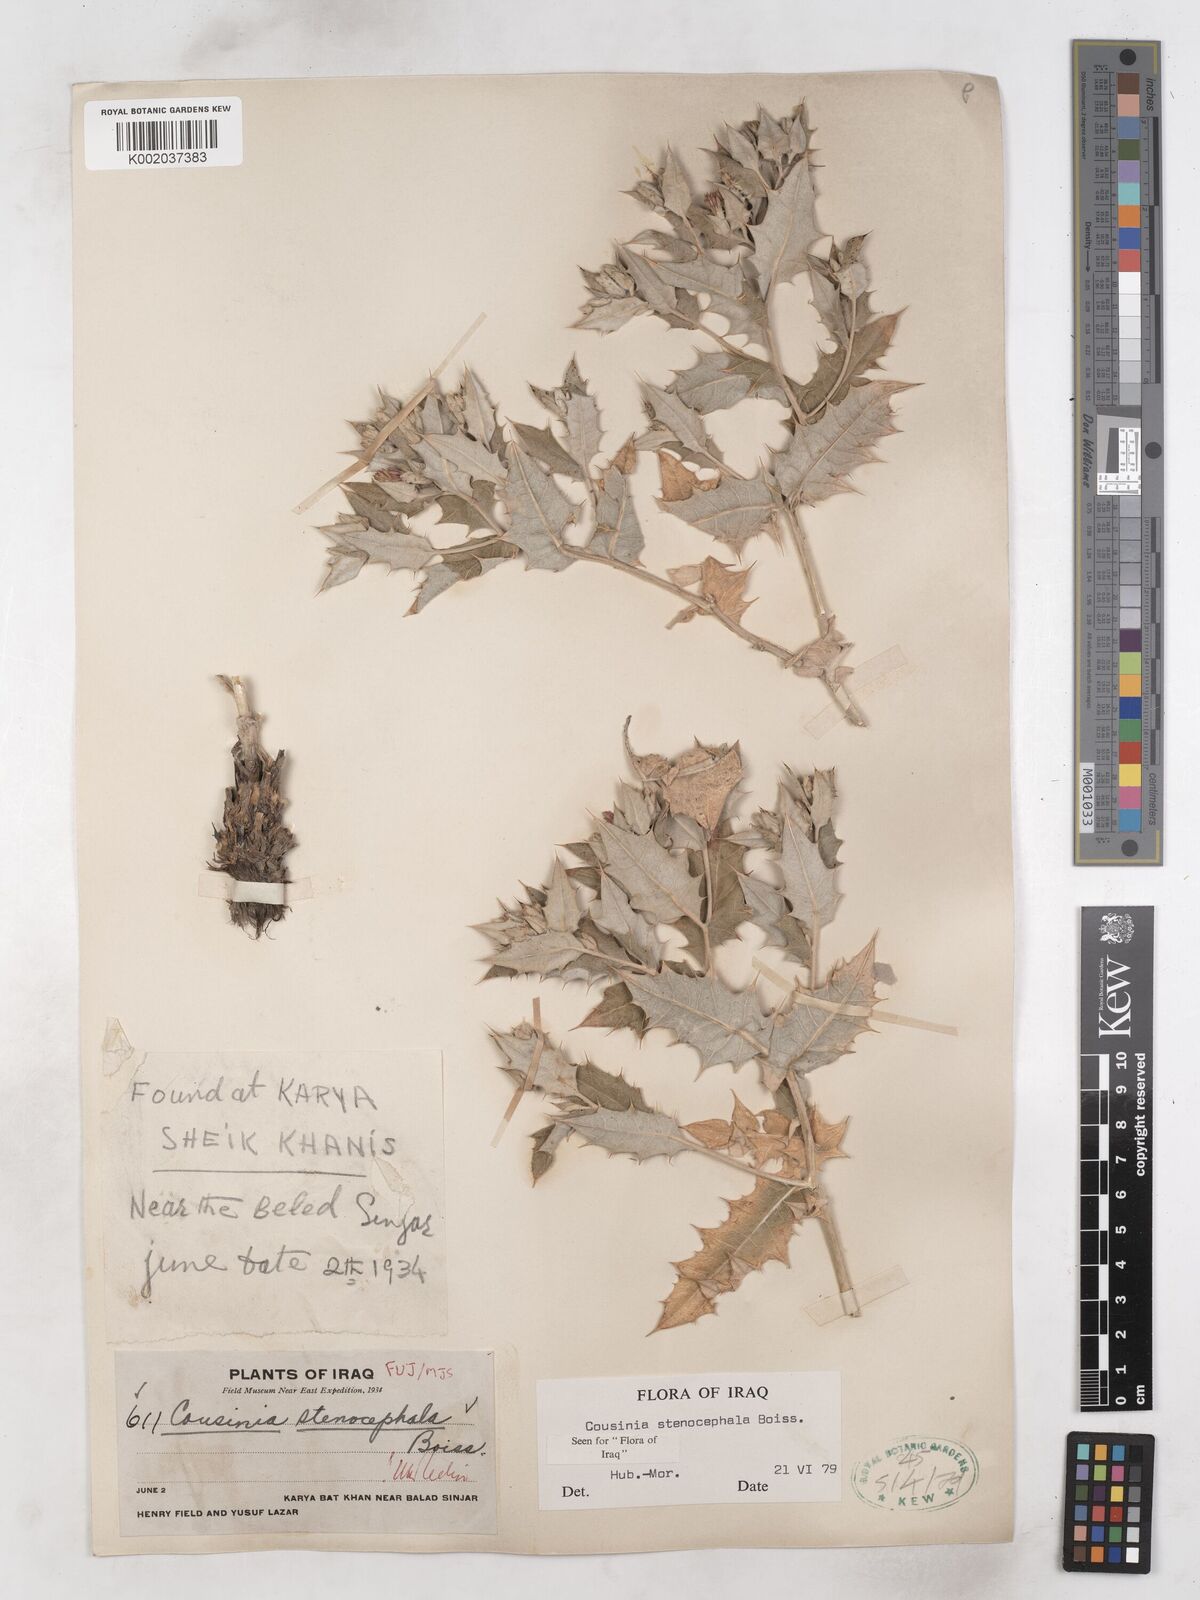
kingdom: Plantae
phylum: Tracheophyta
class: Magnoliopsida
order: Asterales
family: Asteraceae
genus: Cousinia
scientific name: Cousinia stenocephala
